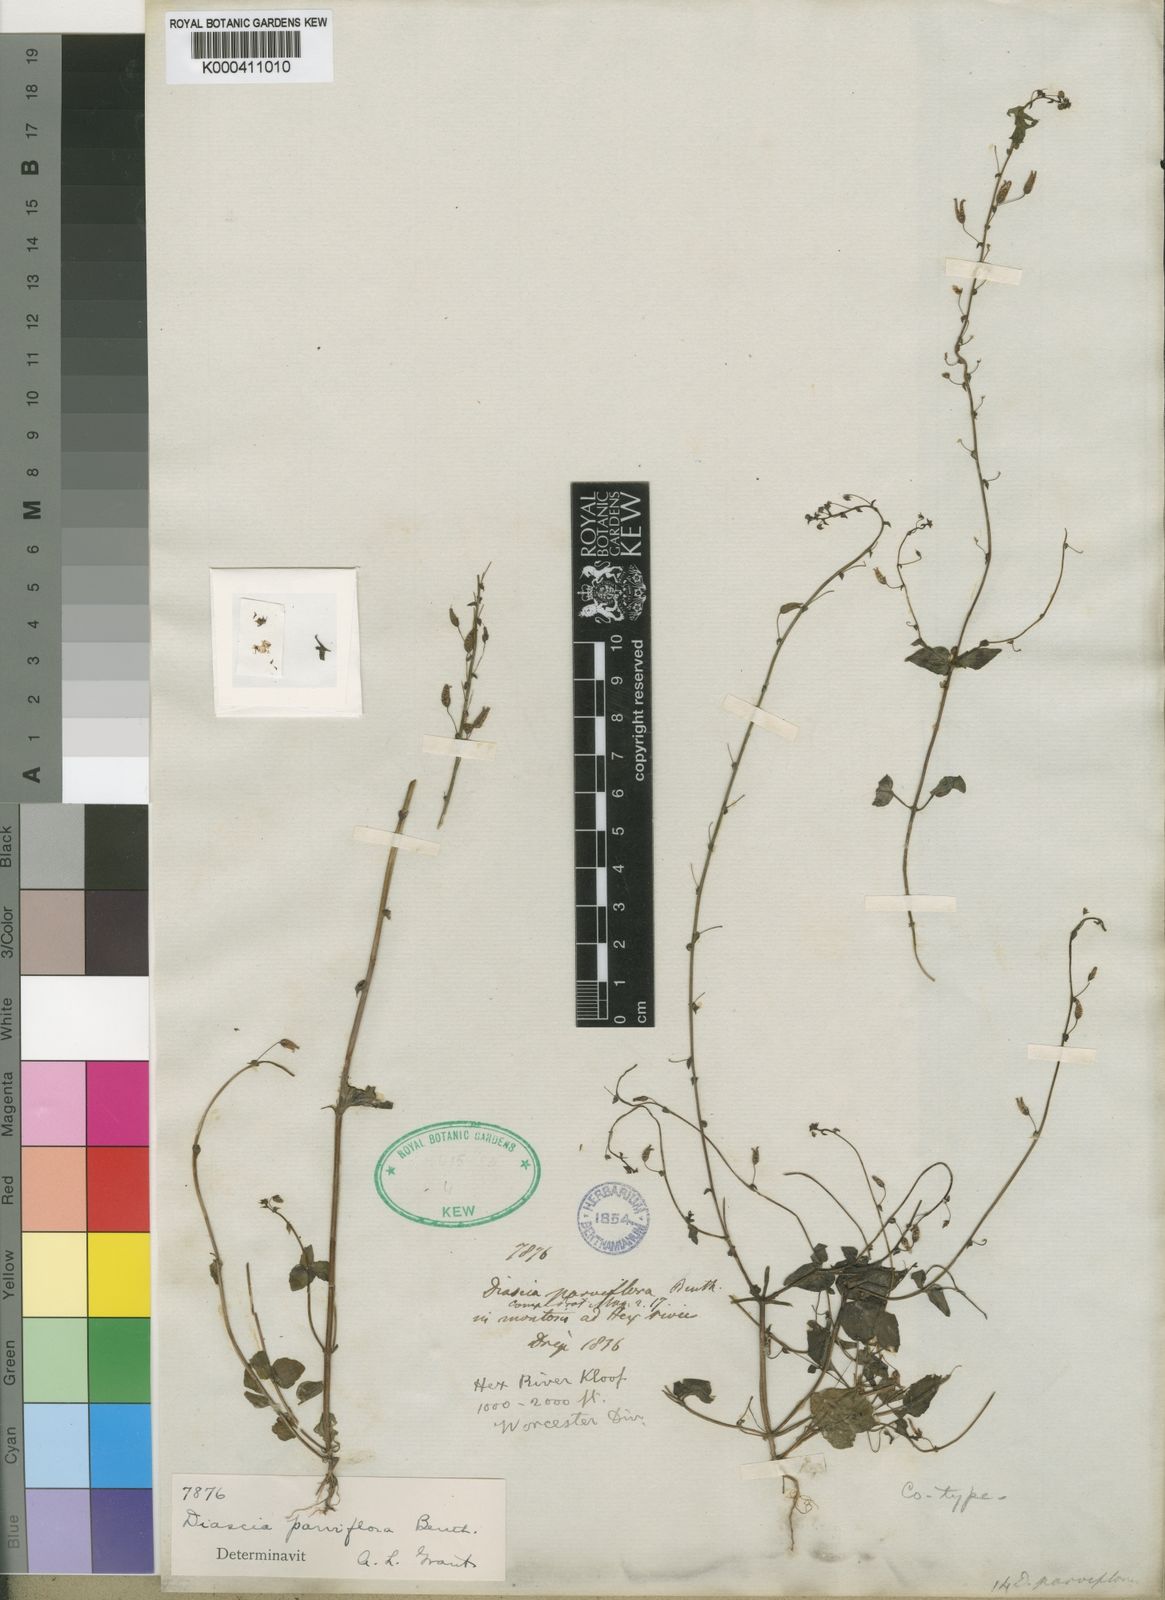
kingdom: Plantae
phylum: Tracheophyta
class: Magnoliopsida
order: Lamiales
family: Scrophulariaceae
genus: Diascia
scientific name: Diascia parviflora
